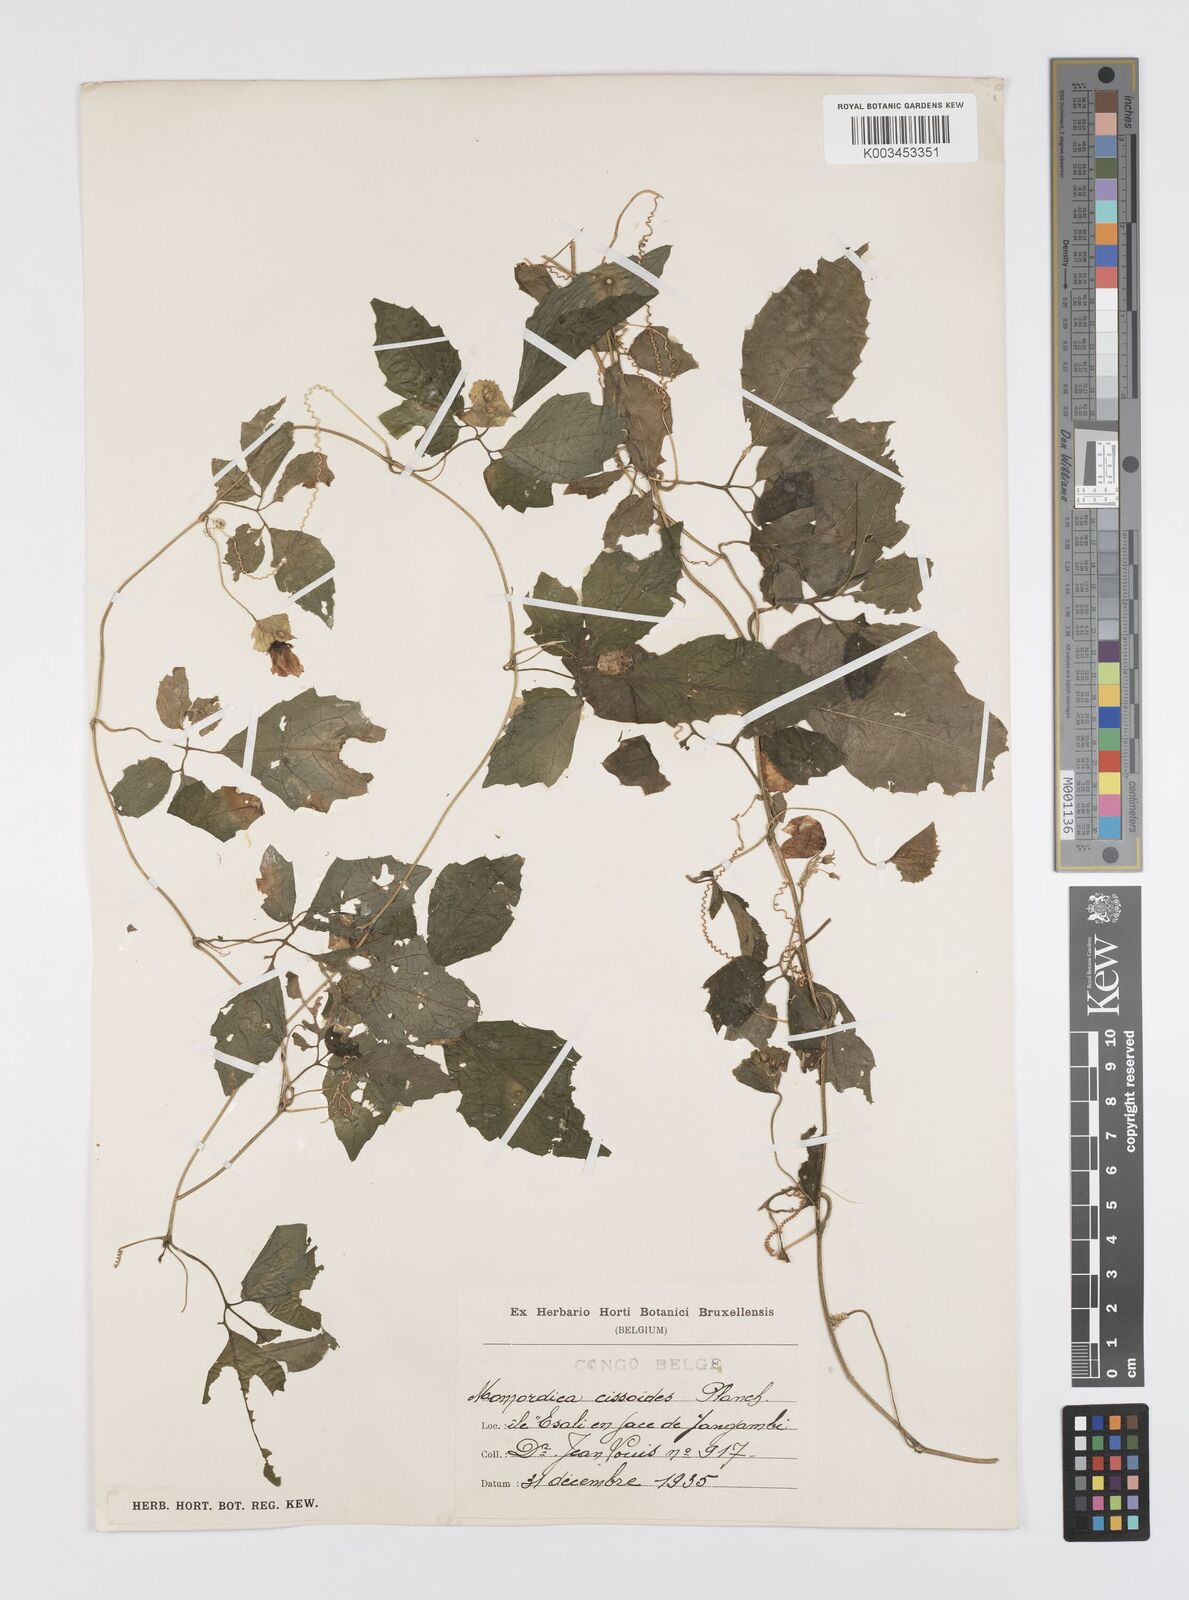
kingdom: Plantae
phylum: Tracheophyta
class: Magnoliopsida
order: Cucurbitales
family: Cucurbitaceae
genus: Momordica
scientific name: Momordica cissoides
